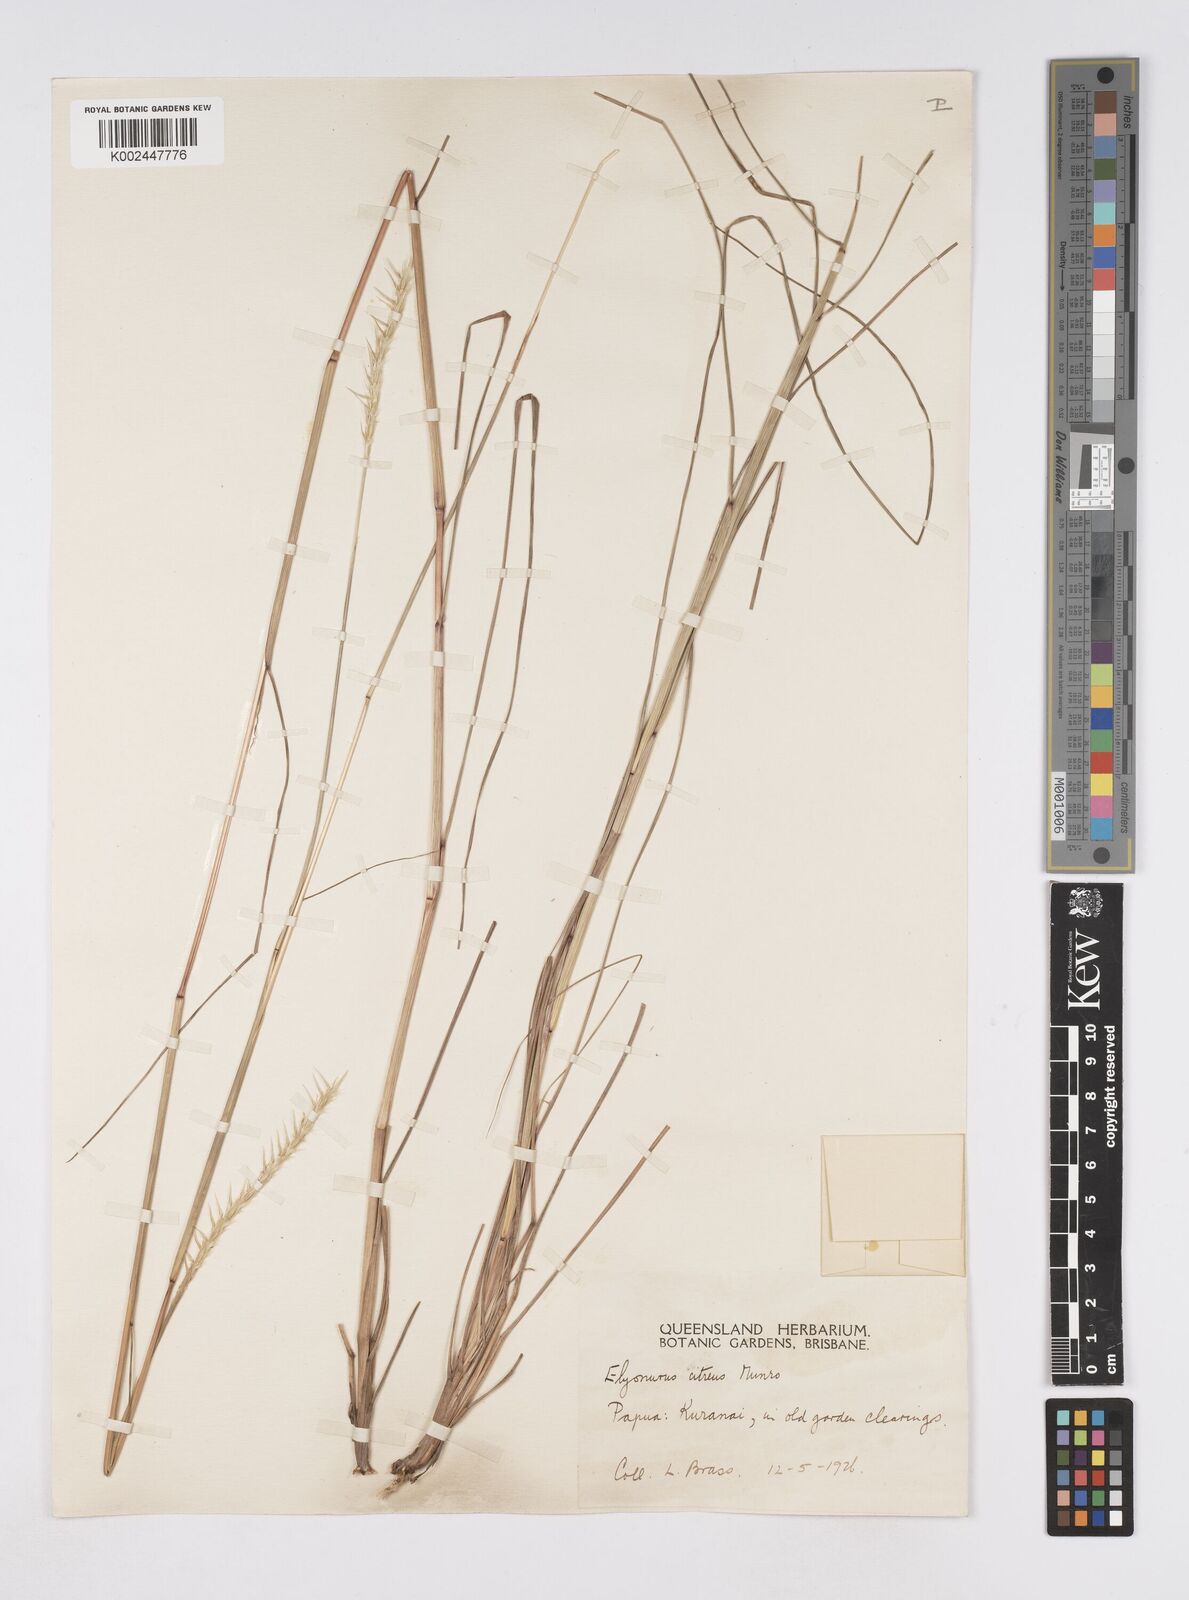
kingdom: Plantae
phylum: Tracheophyta
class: Liliopsida
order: Poales
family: Poaceae
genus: Elionurus
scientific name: Elionurus citreus
